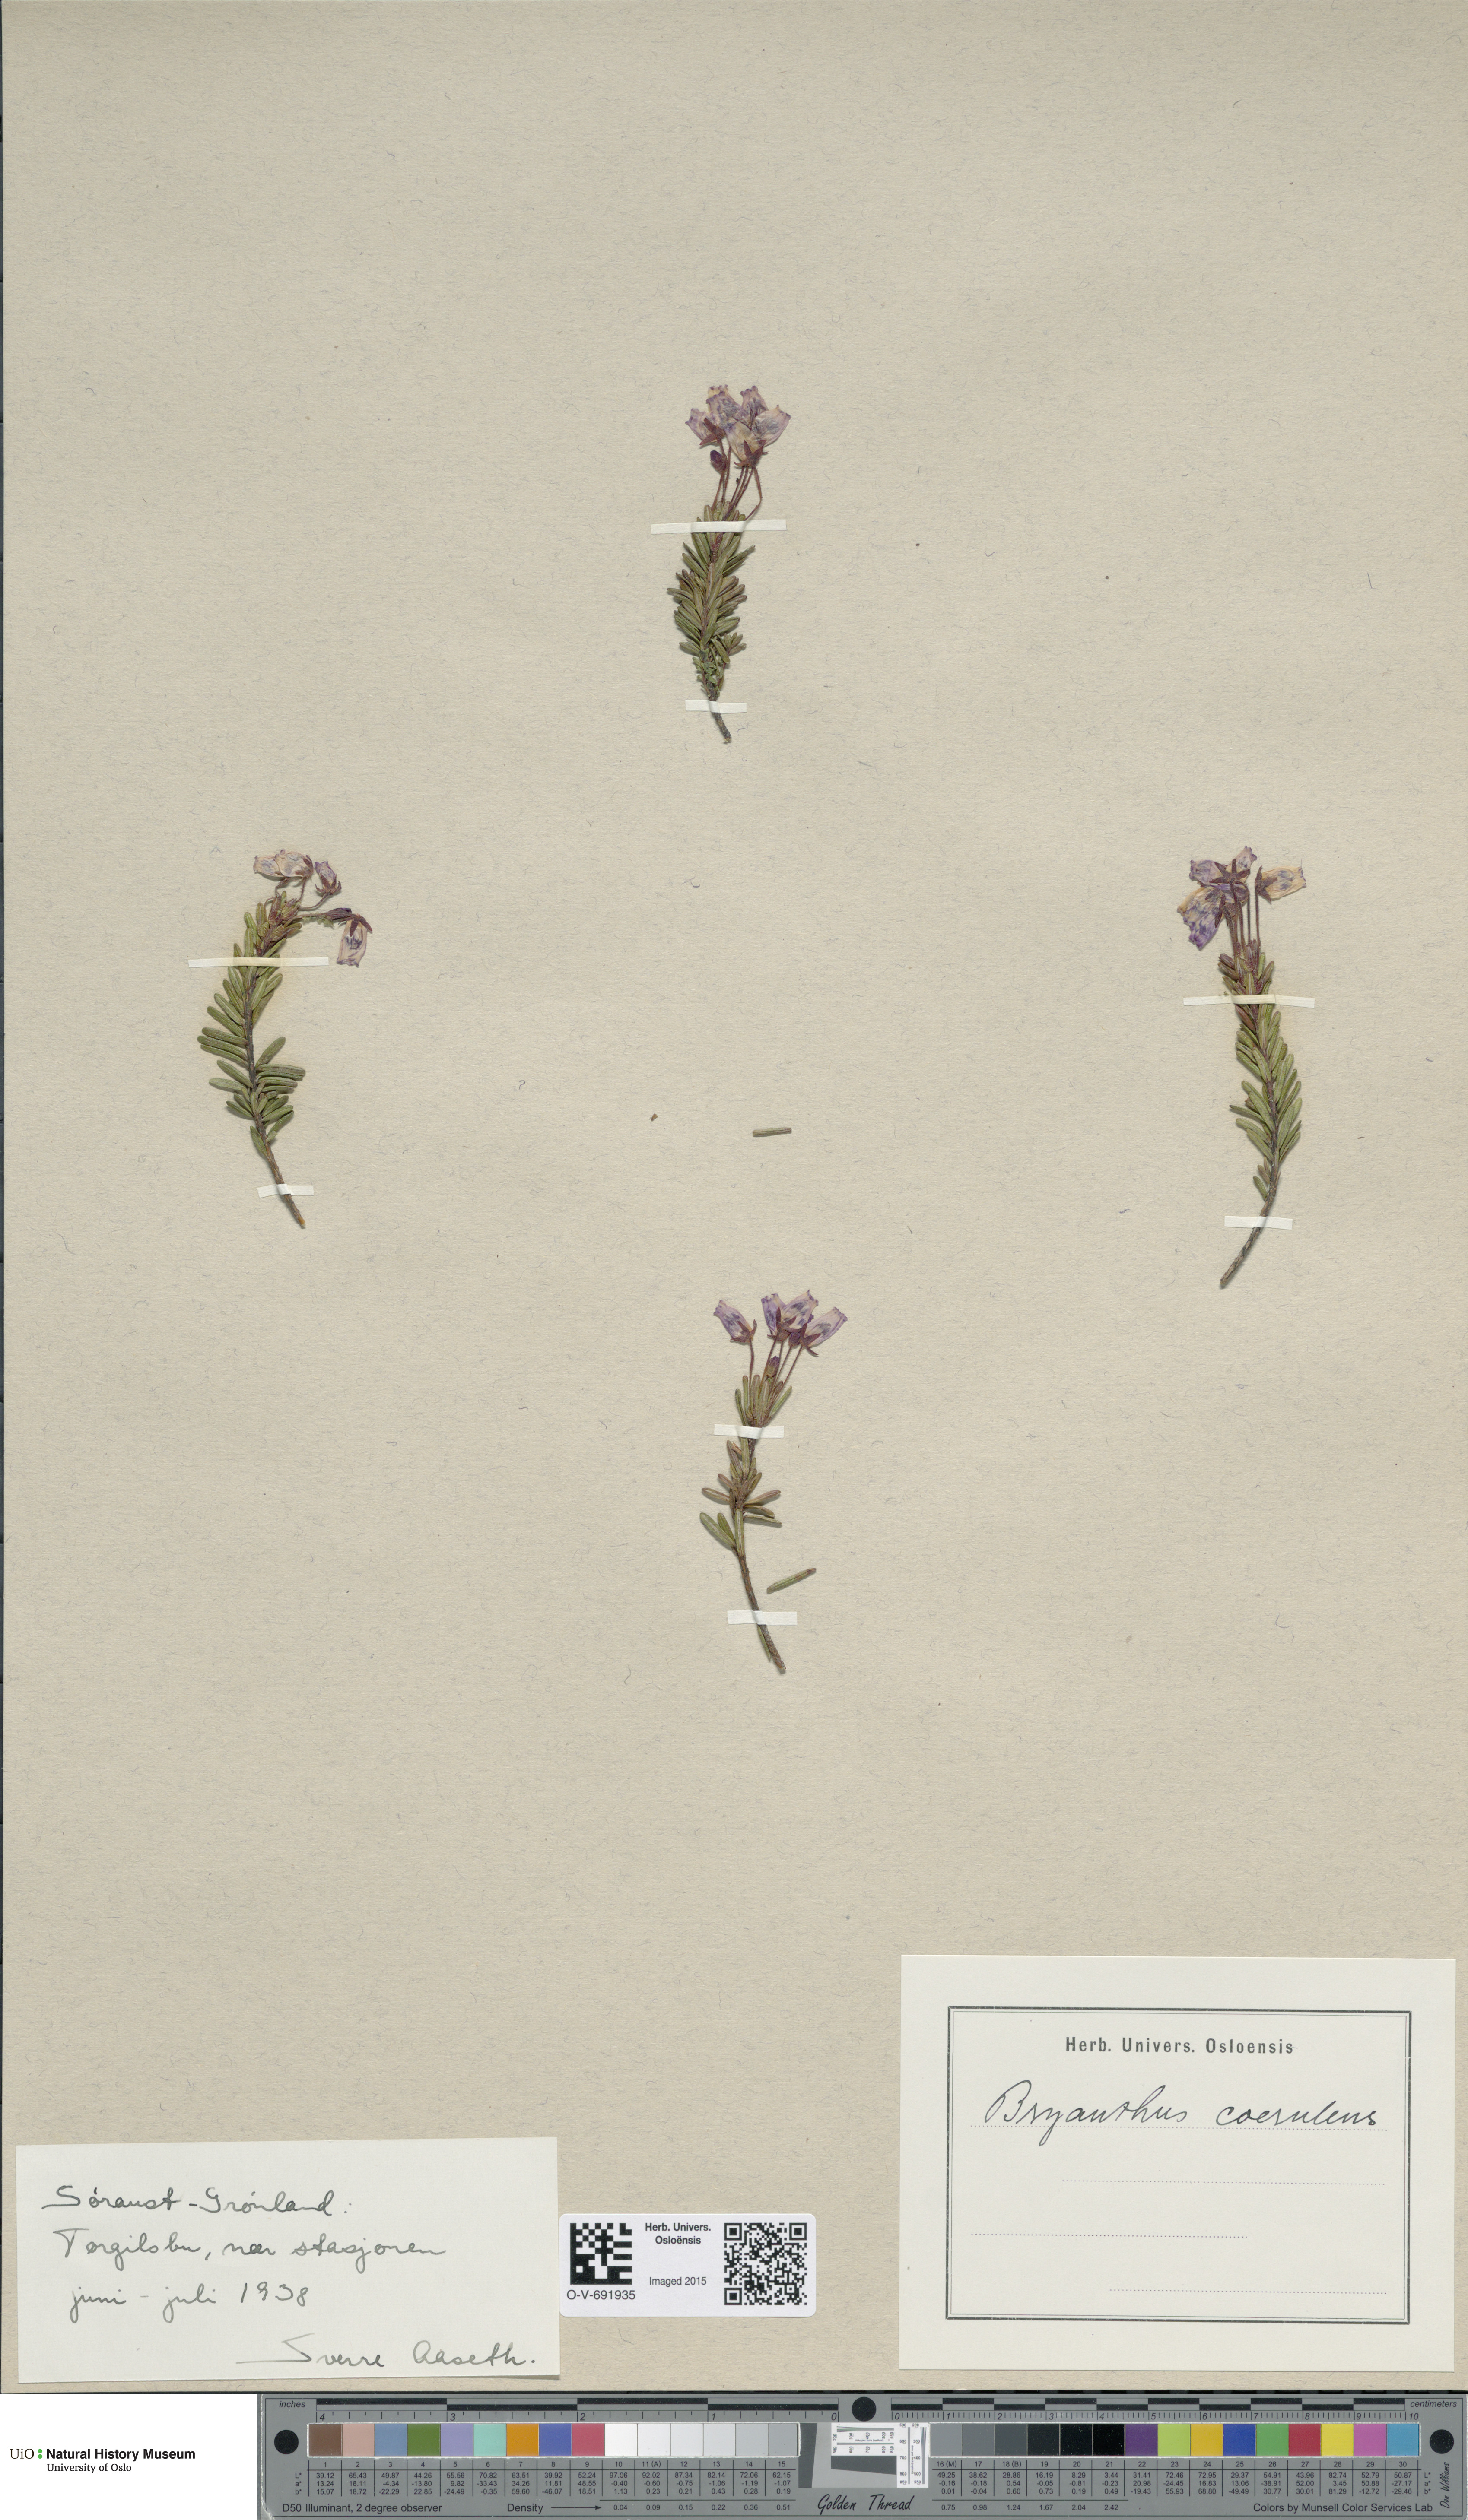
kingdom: Plantae
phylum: Tracheophyta
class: Magnoliopsida
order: Ericales
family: Ericaceae
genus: Phyllodoce
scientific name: Phyllodoce caerulea
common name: Blue heath
